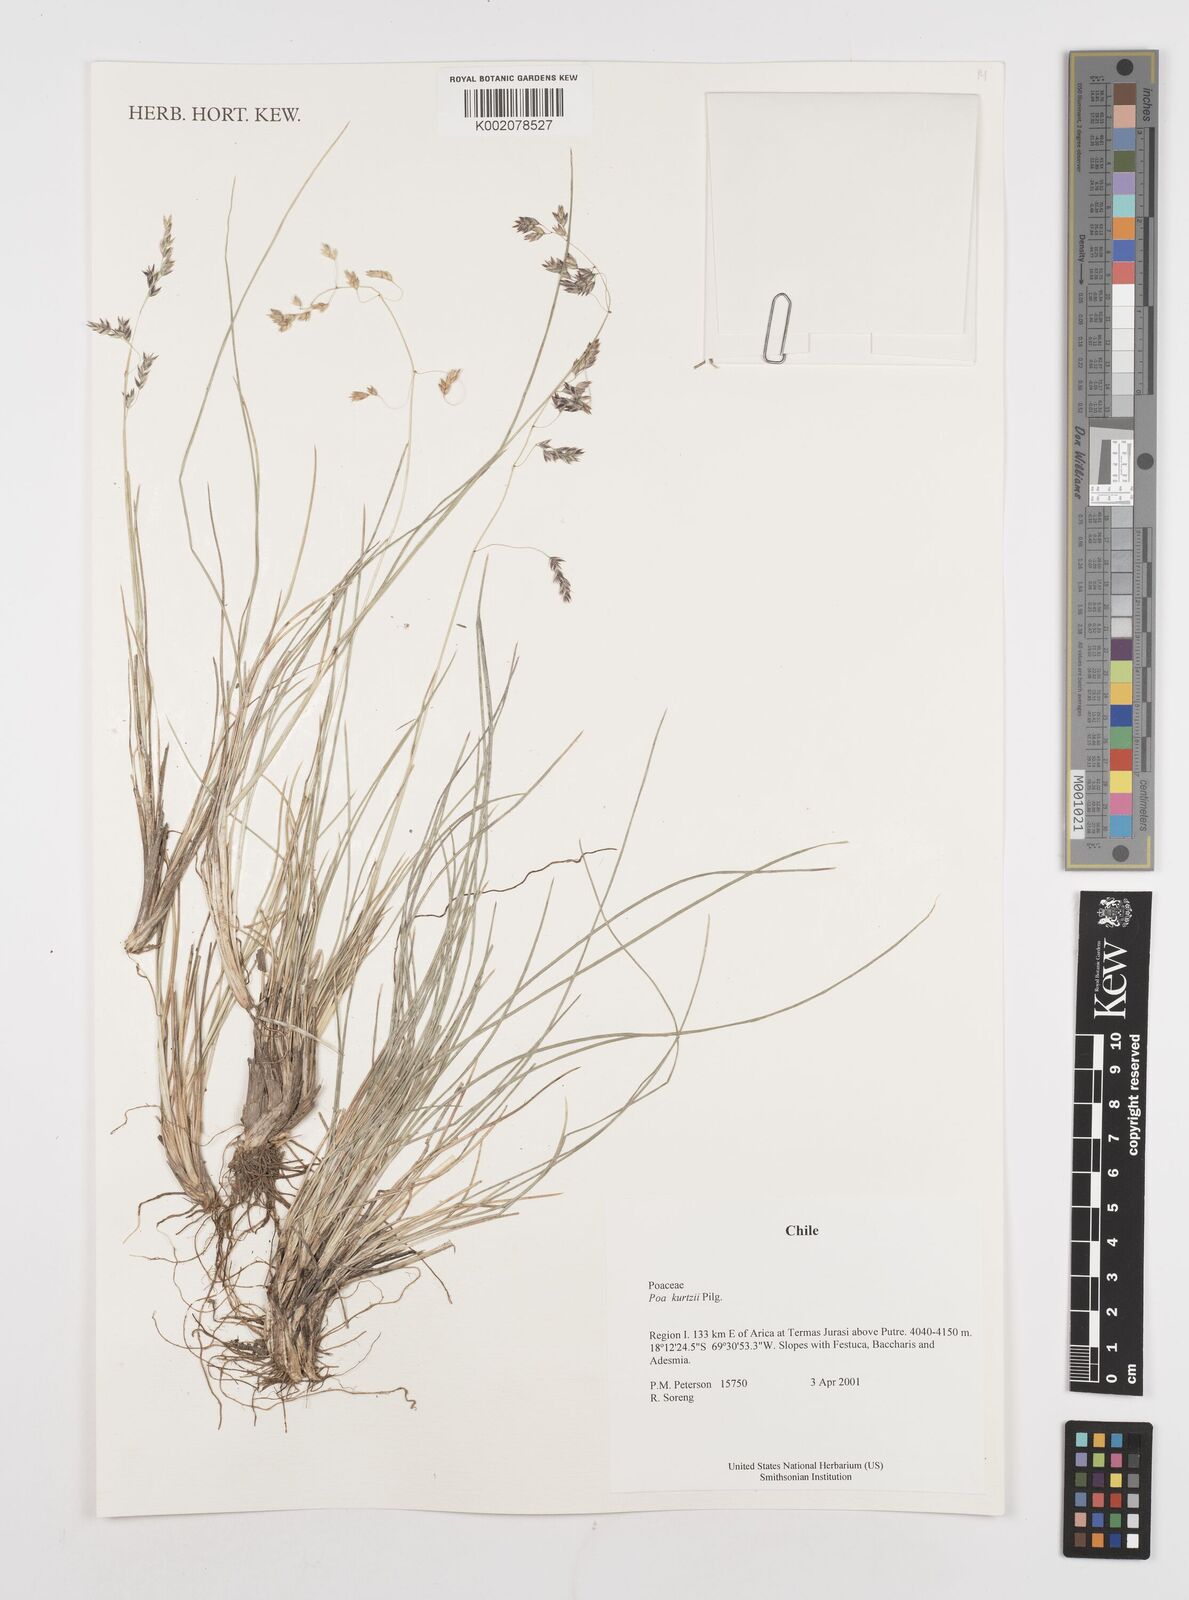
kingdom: Plantae
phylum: Tracheophyta
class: Liliopsida
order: Poales
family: Poaceae
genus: Poa
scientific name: Poa
